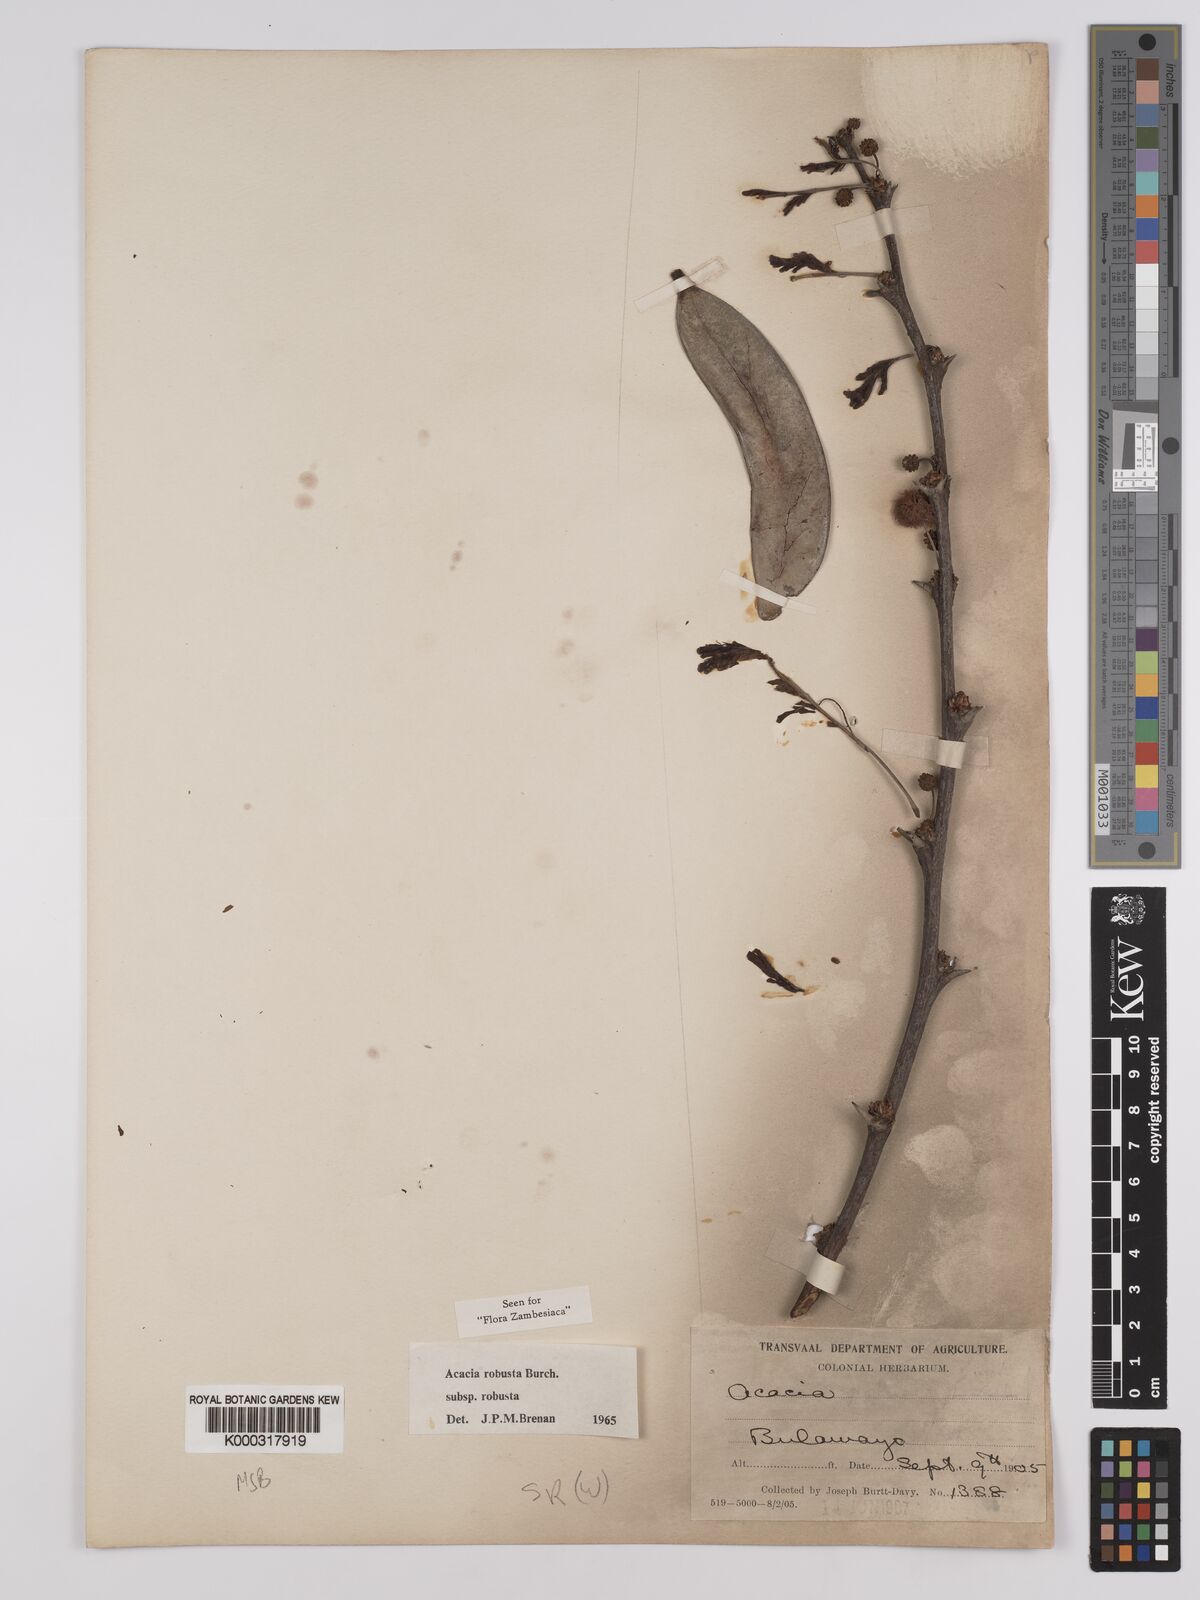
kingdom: Plantae
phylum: Tracheophyta
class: Magnoliopsida
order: Fabales
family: Fabaceae
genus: Vachellia
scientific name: Vachellia robusta
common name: Ankle thorn
